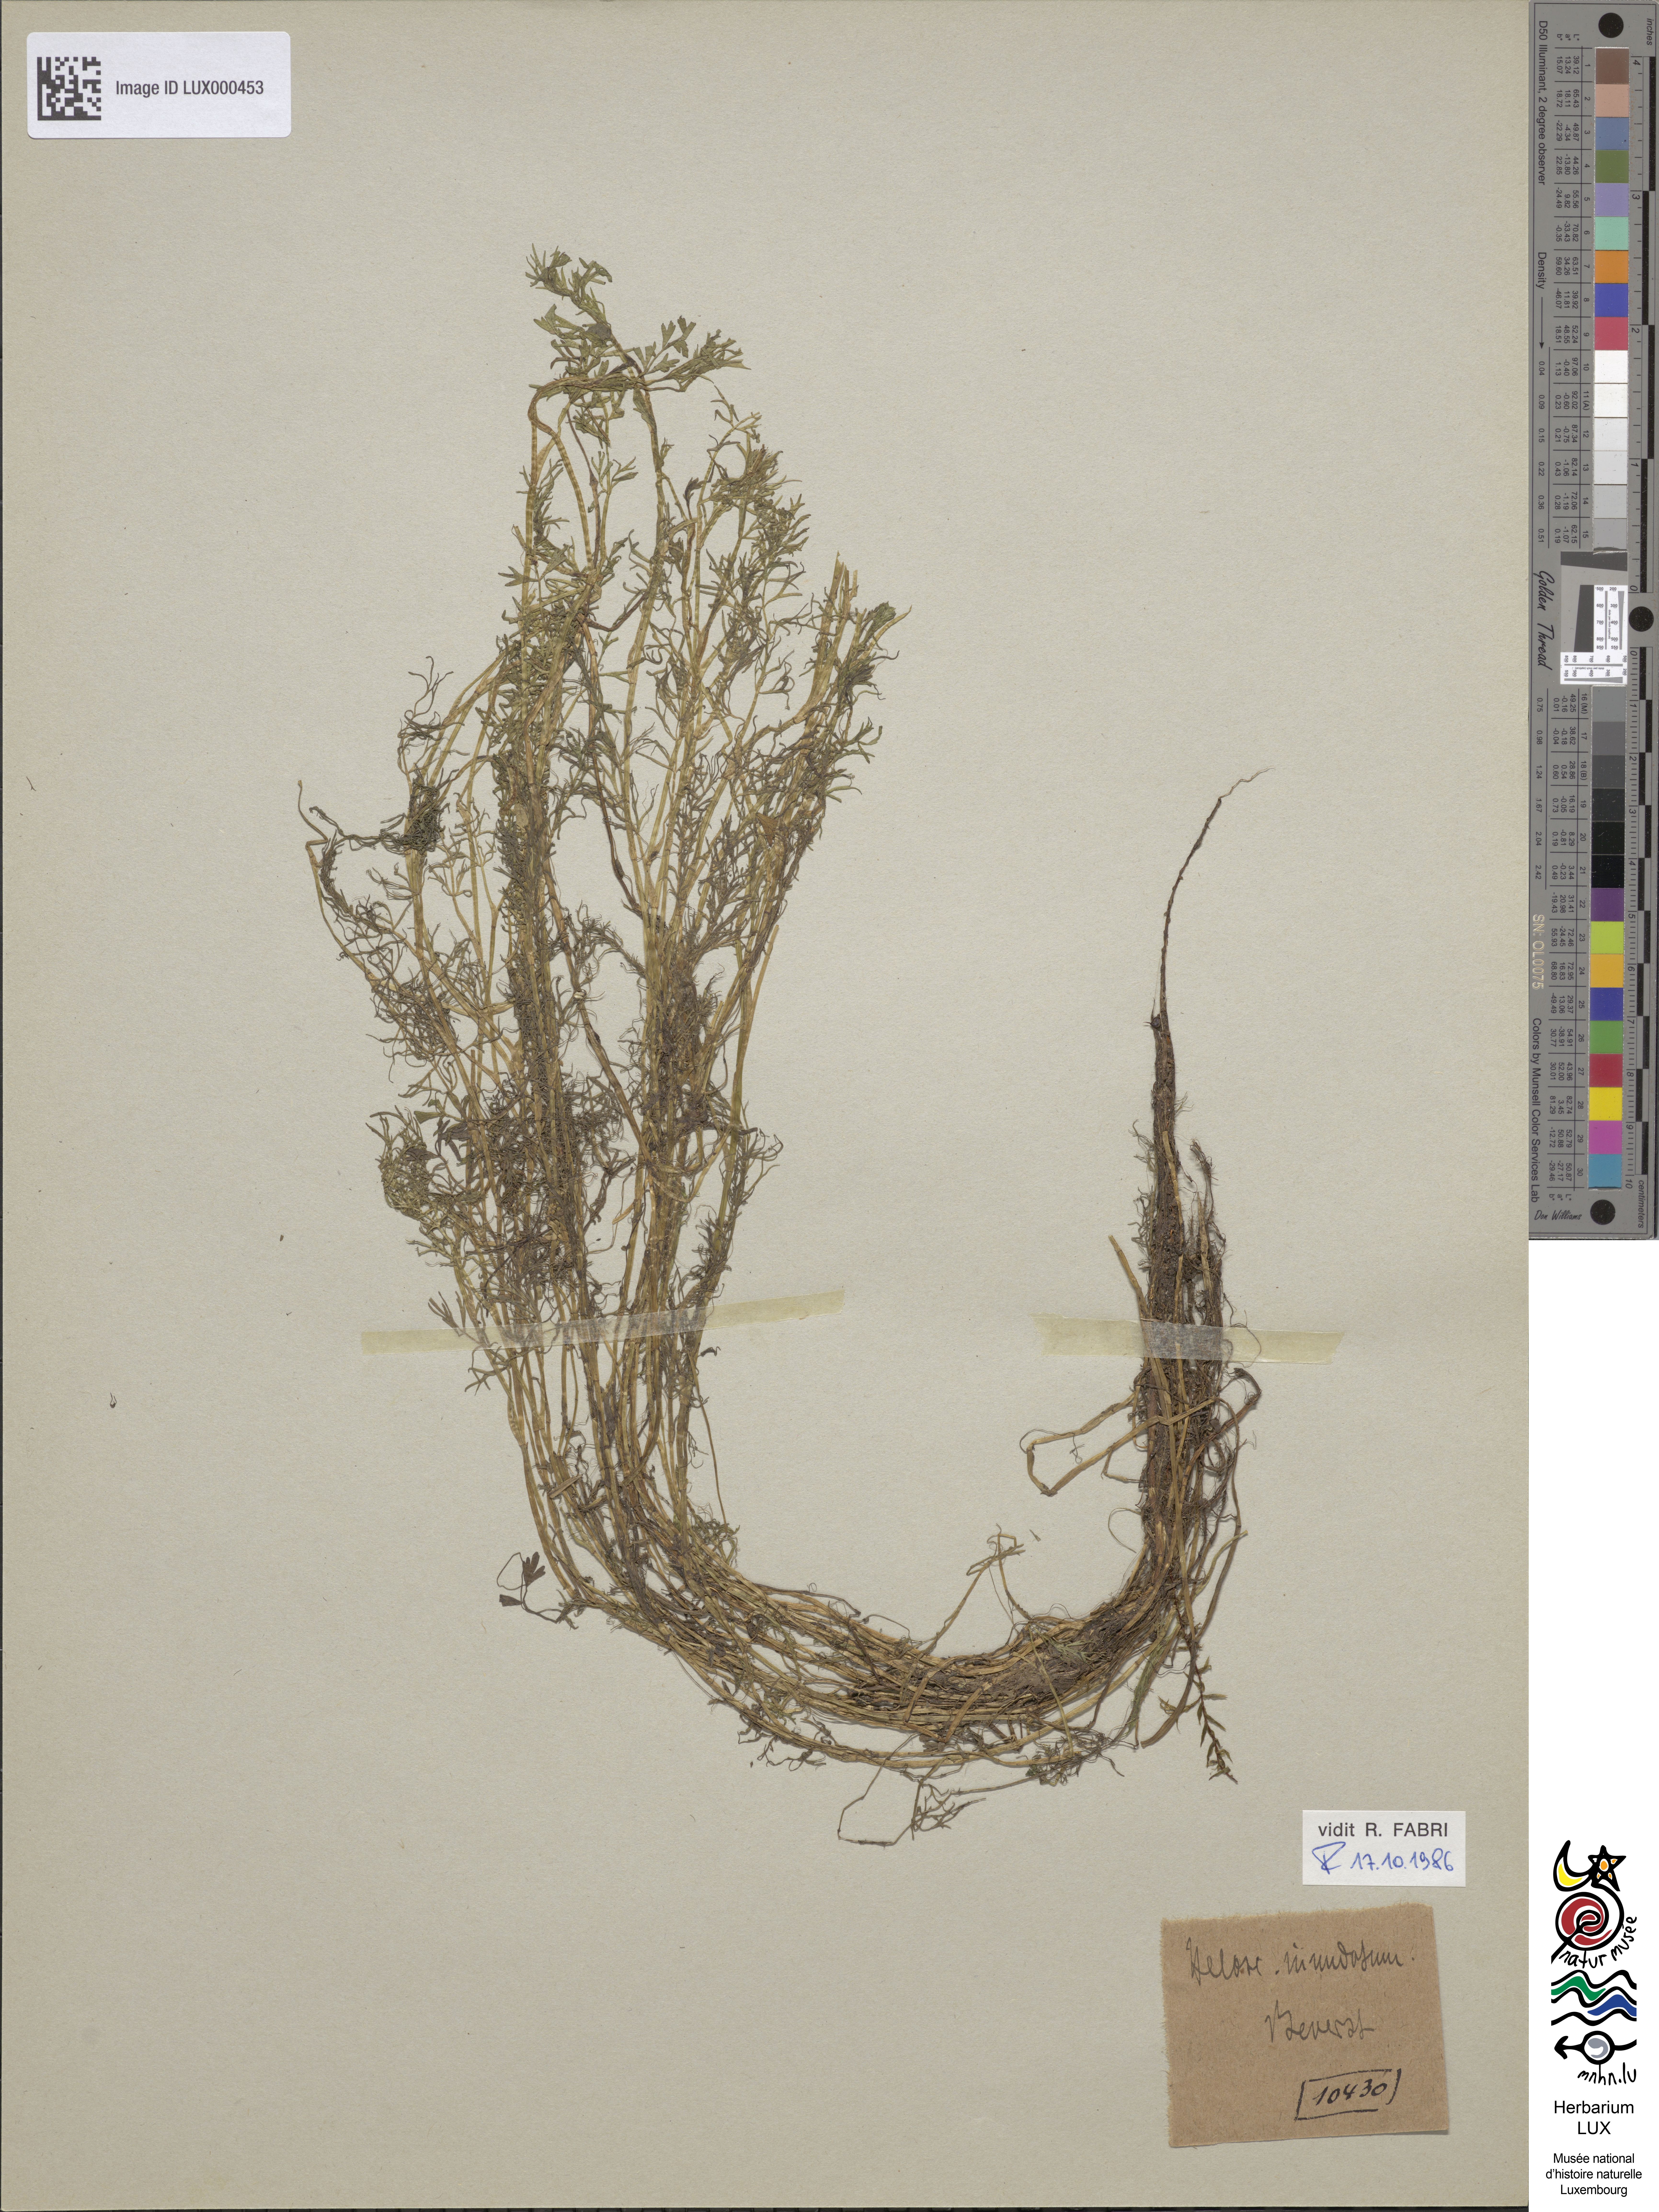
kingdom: Plantae
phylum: Tracheophyta
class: Magnoliopsida
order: Apiales
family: Apiaceae
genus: Helosciadium
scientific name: Helosciadium inundatum
